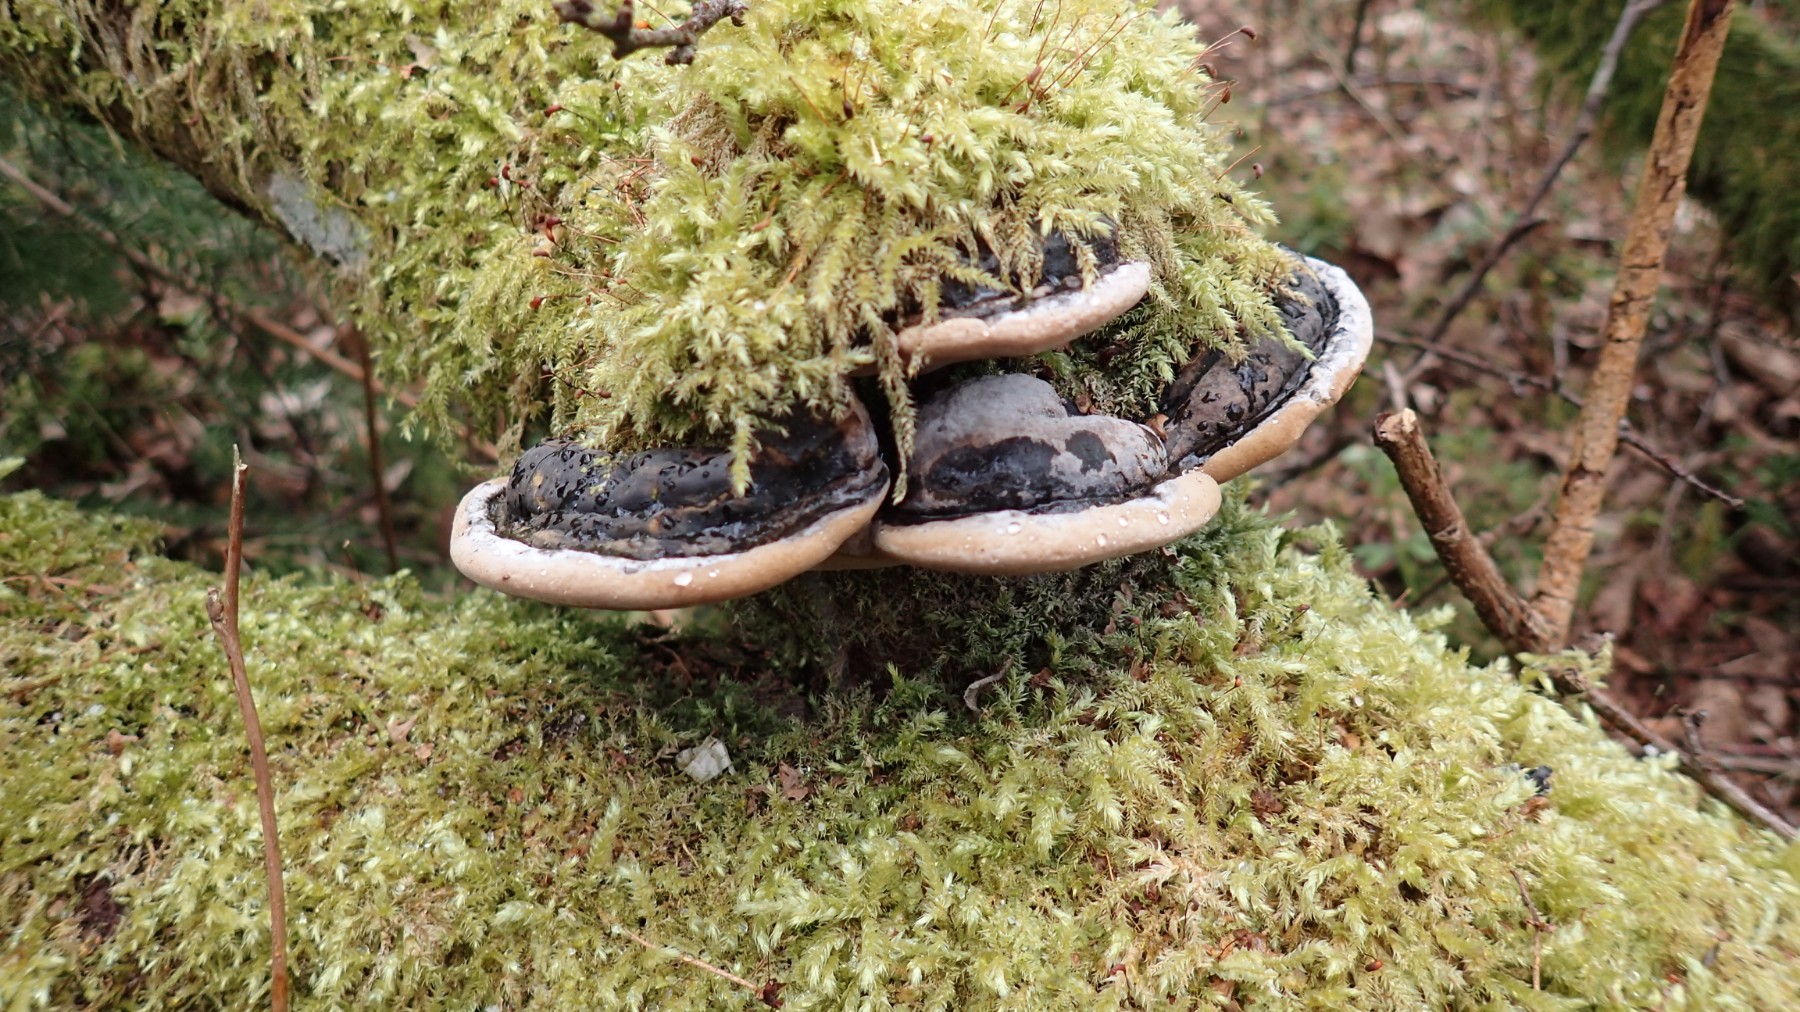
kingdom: Fungi
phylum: Basidiomycota
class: Agaricomycetes
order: Hymenochaetales
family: Hymenochaetaceae
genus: Phellinus
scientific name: Phellinus igniarius
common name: almindelig ildporesvamp
